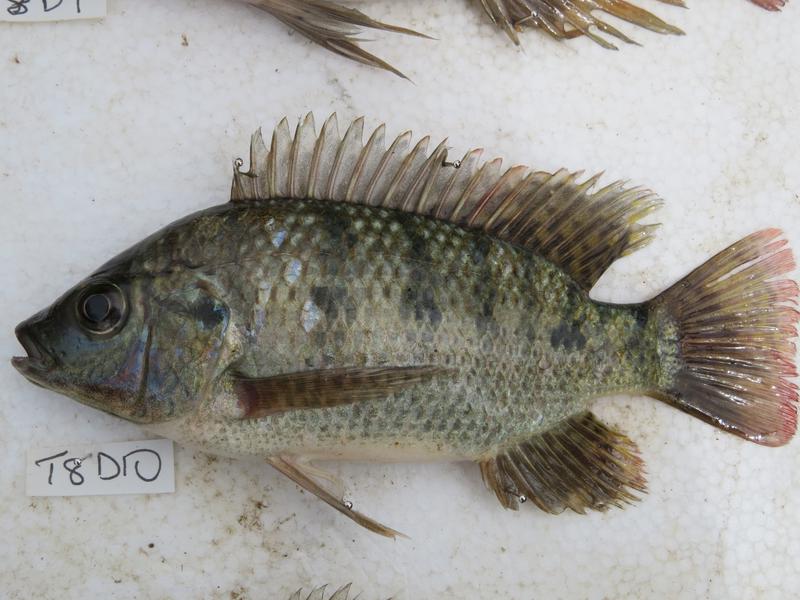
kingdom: Animalia
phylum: Chordata
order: Perciformes
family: Cichlidae
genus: Oreochromis
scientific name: Oreochromis shiranus
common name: Chilwa tilapia
